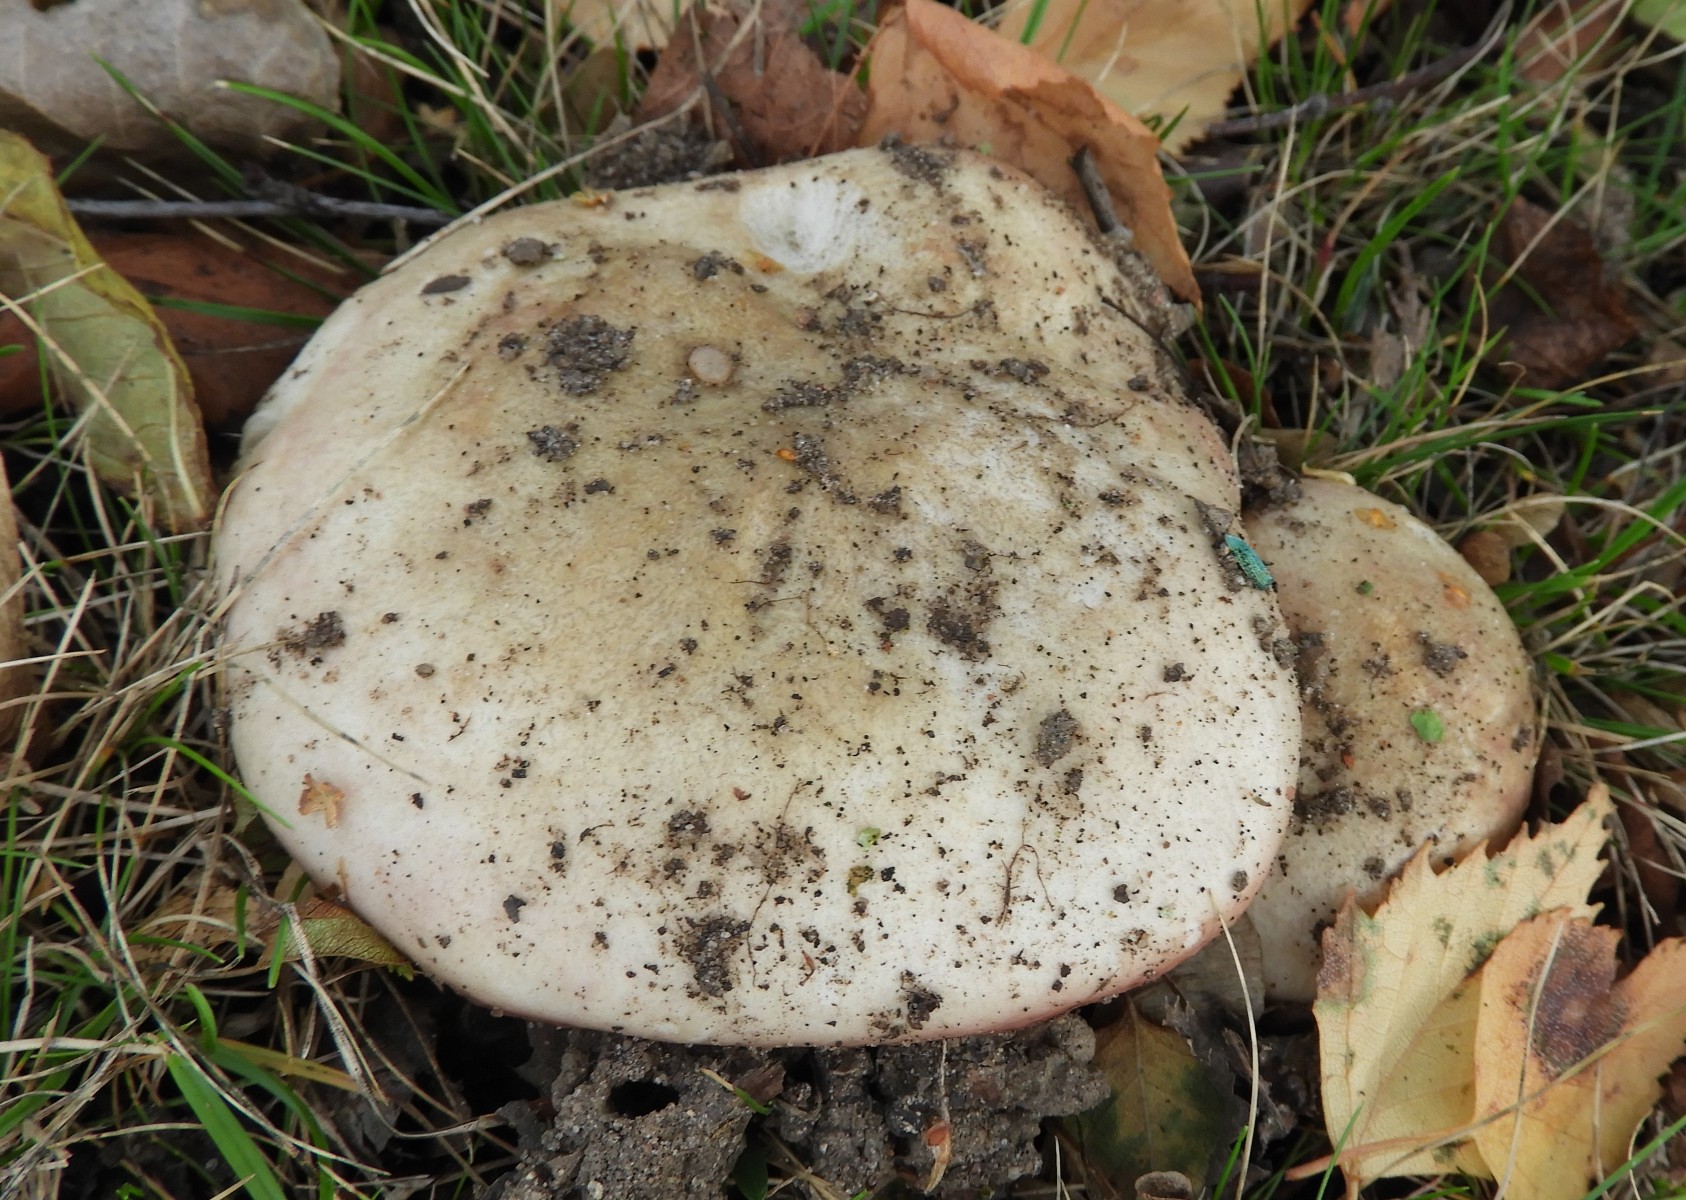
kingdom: Fungi
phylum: Basidiomycota
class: Agaricomycetes
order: Russulales
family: Russulaceae
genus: Russula
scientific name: Russula depallens
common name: falmende skørhat
